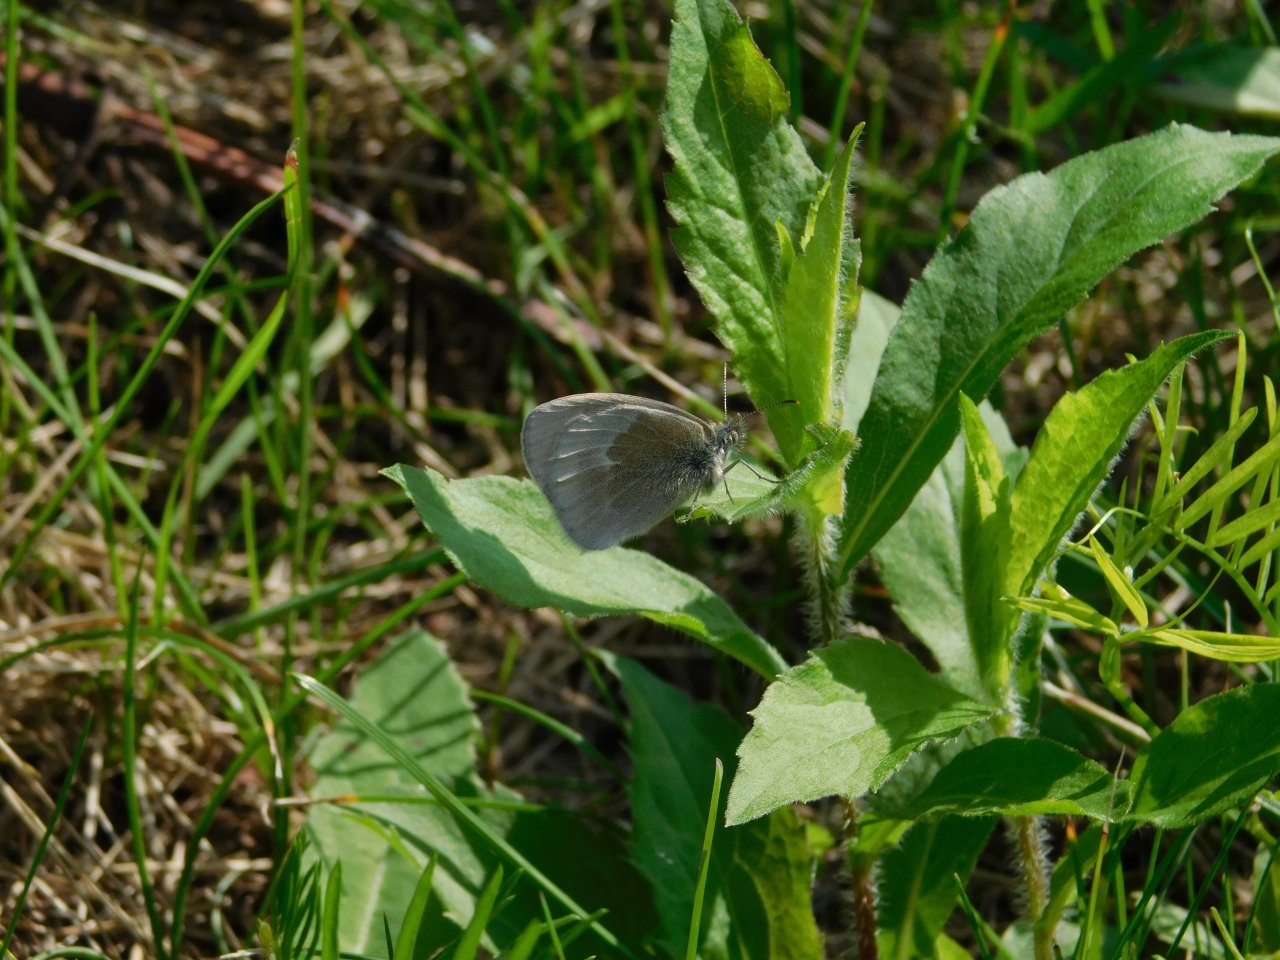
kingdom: Animalia
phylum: Arthropoda
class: Insecta
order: Lepidoptera
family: Nymphalidae
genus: Coenonympha
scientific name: Coenonympha tullia
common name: Large Heath
